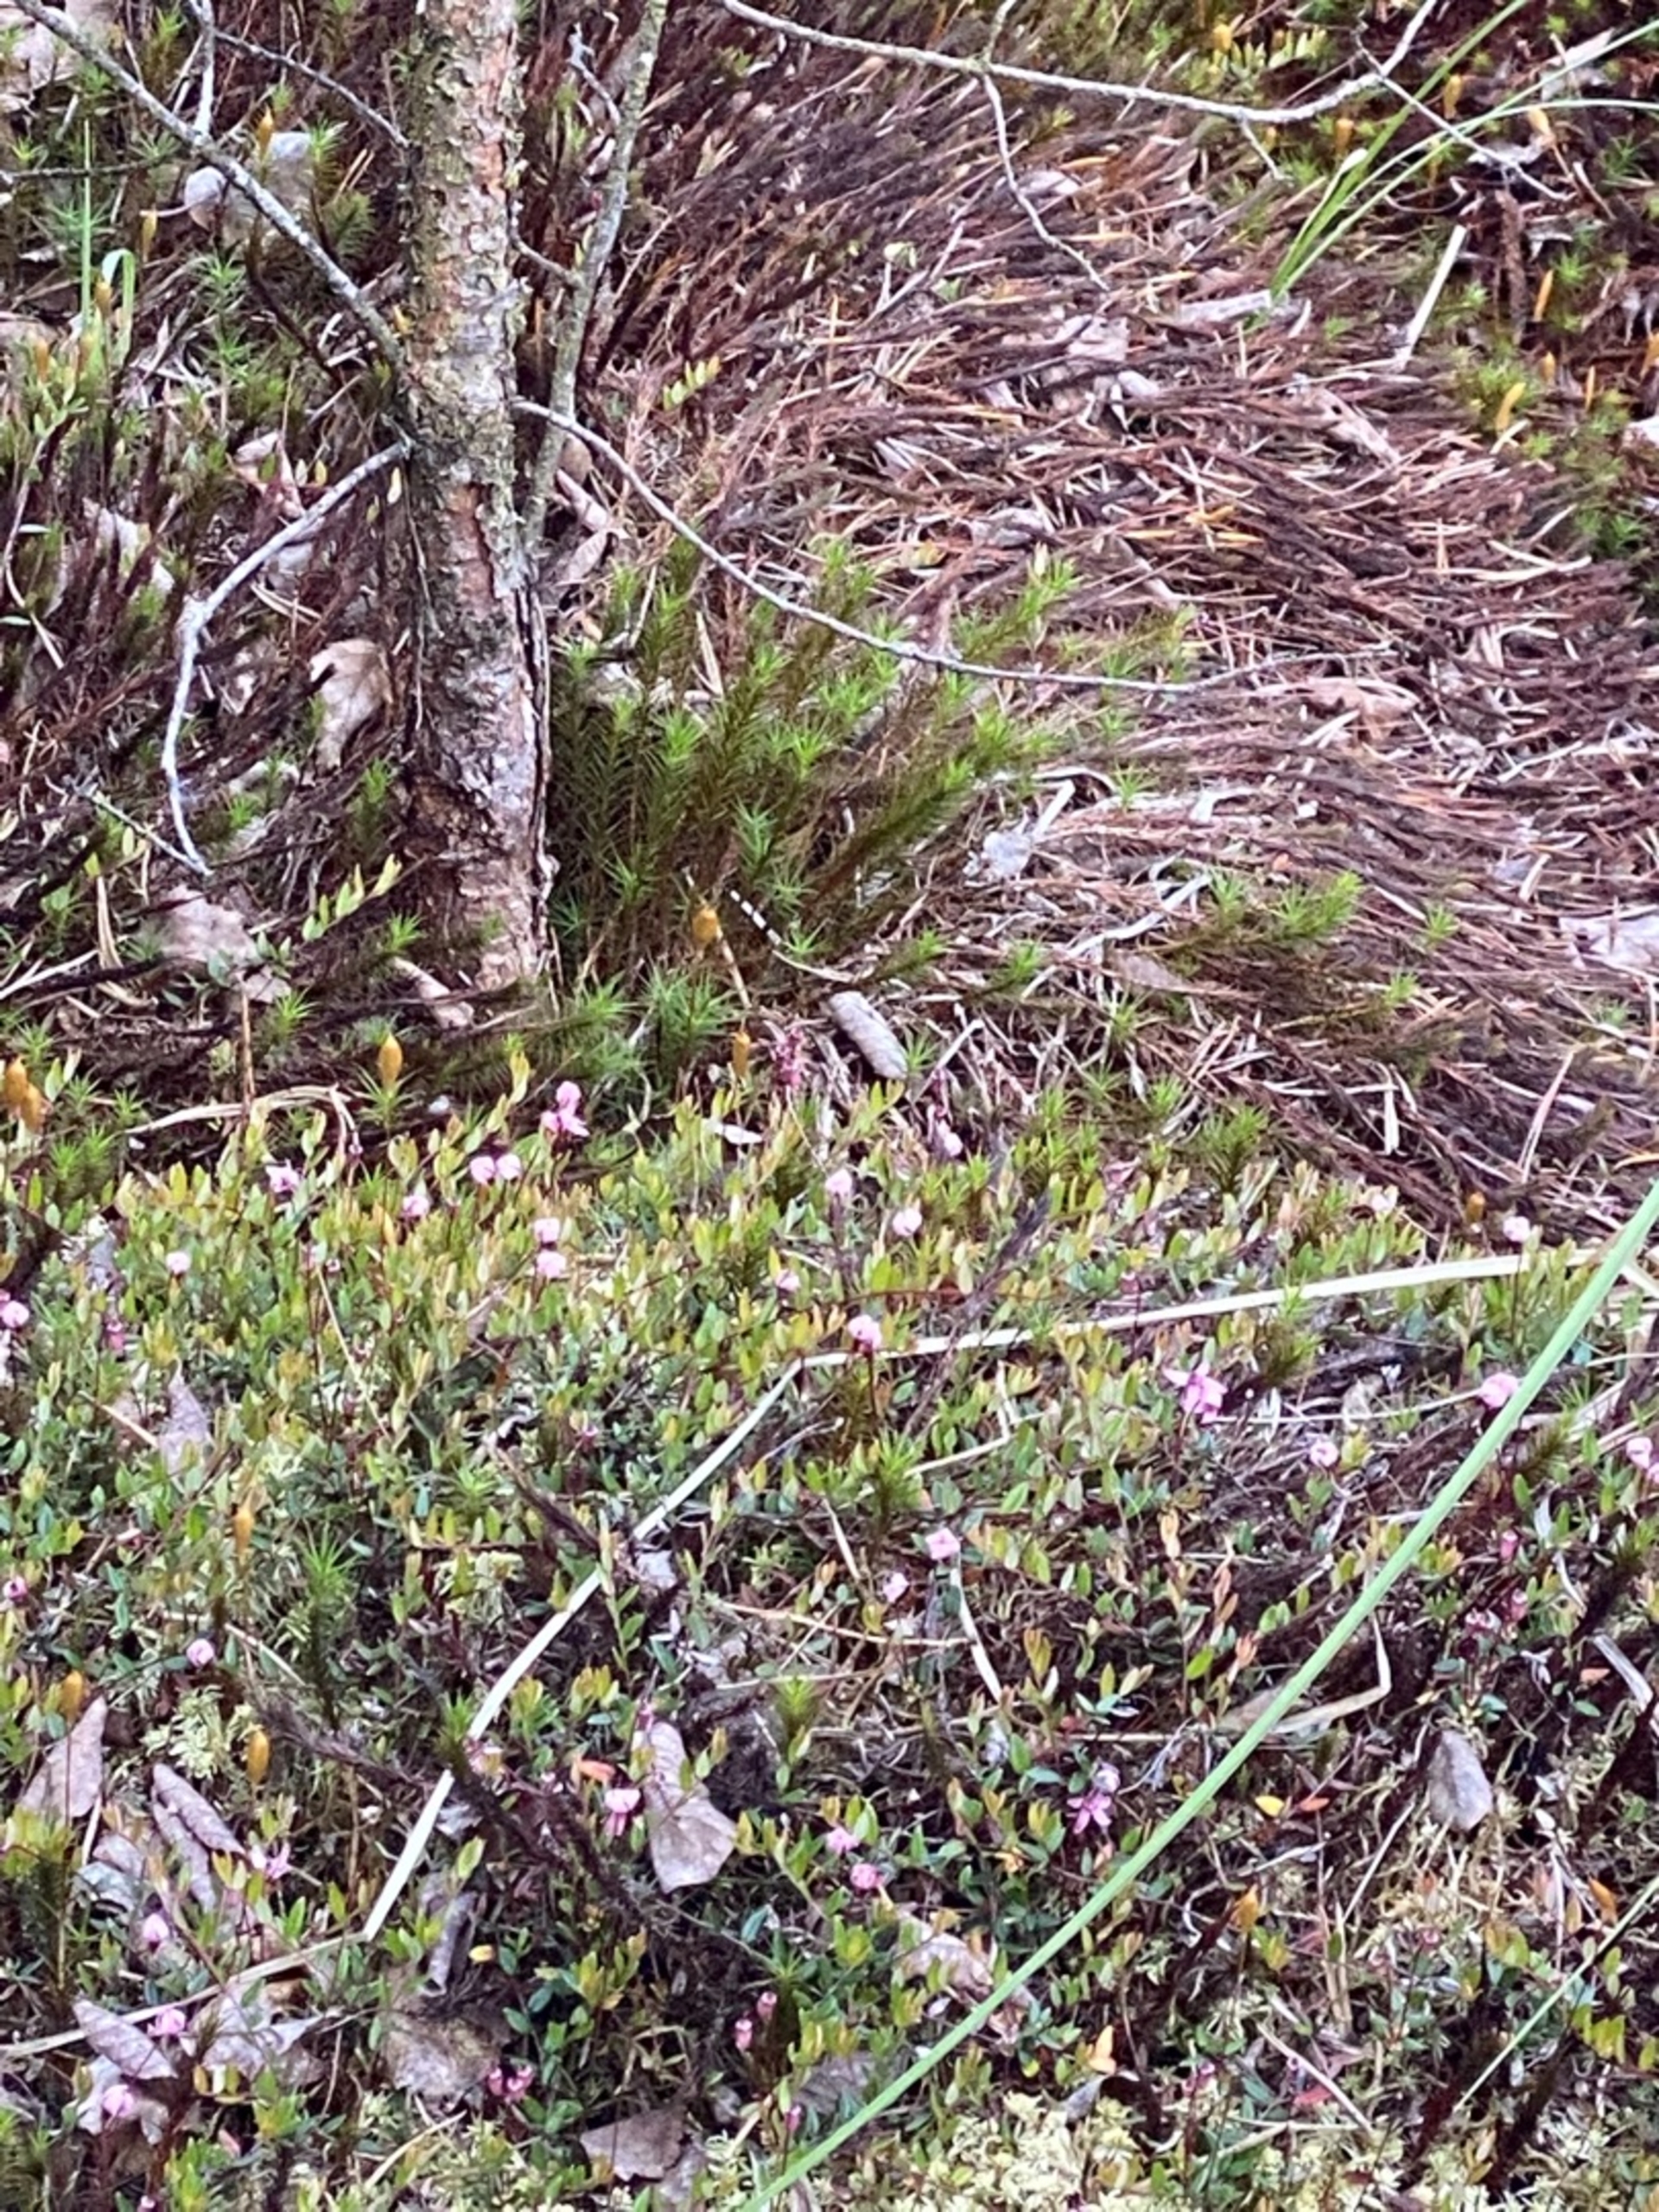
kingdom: Plantae
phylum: Tracheophyta
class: Magnoliopsida
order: Ericales
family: Ericaceae
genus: Vaccinium
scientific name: Vaccinium oxycoccos
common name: Tranebær
